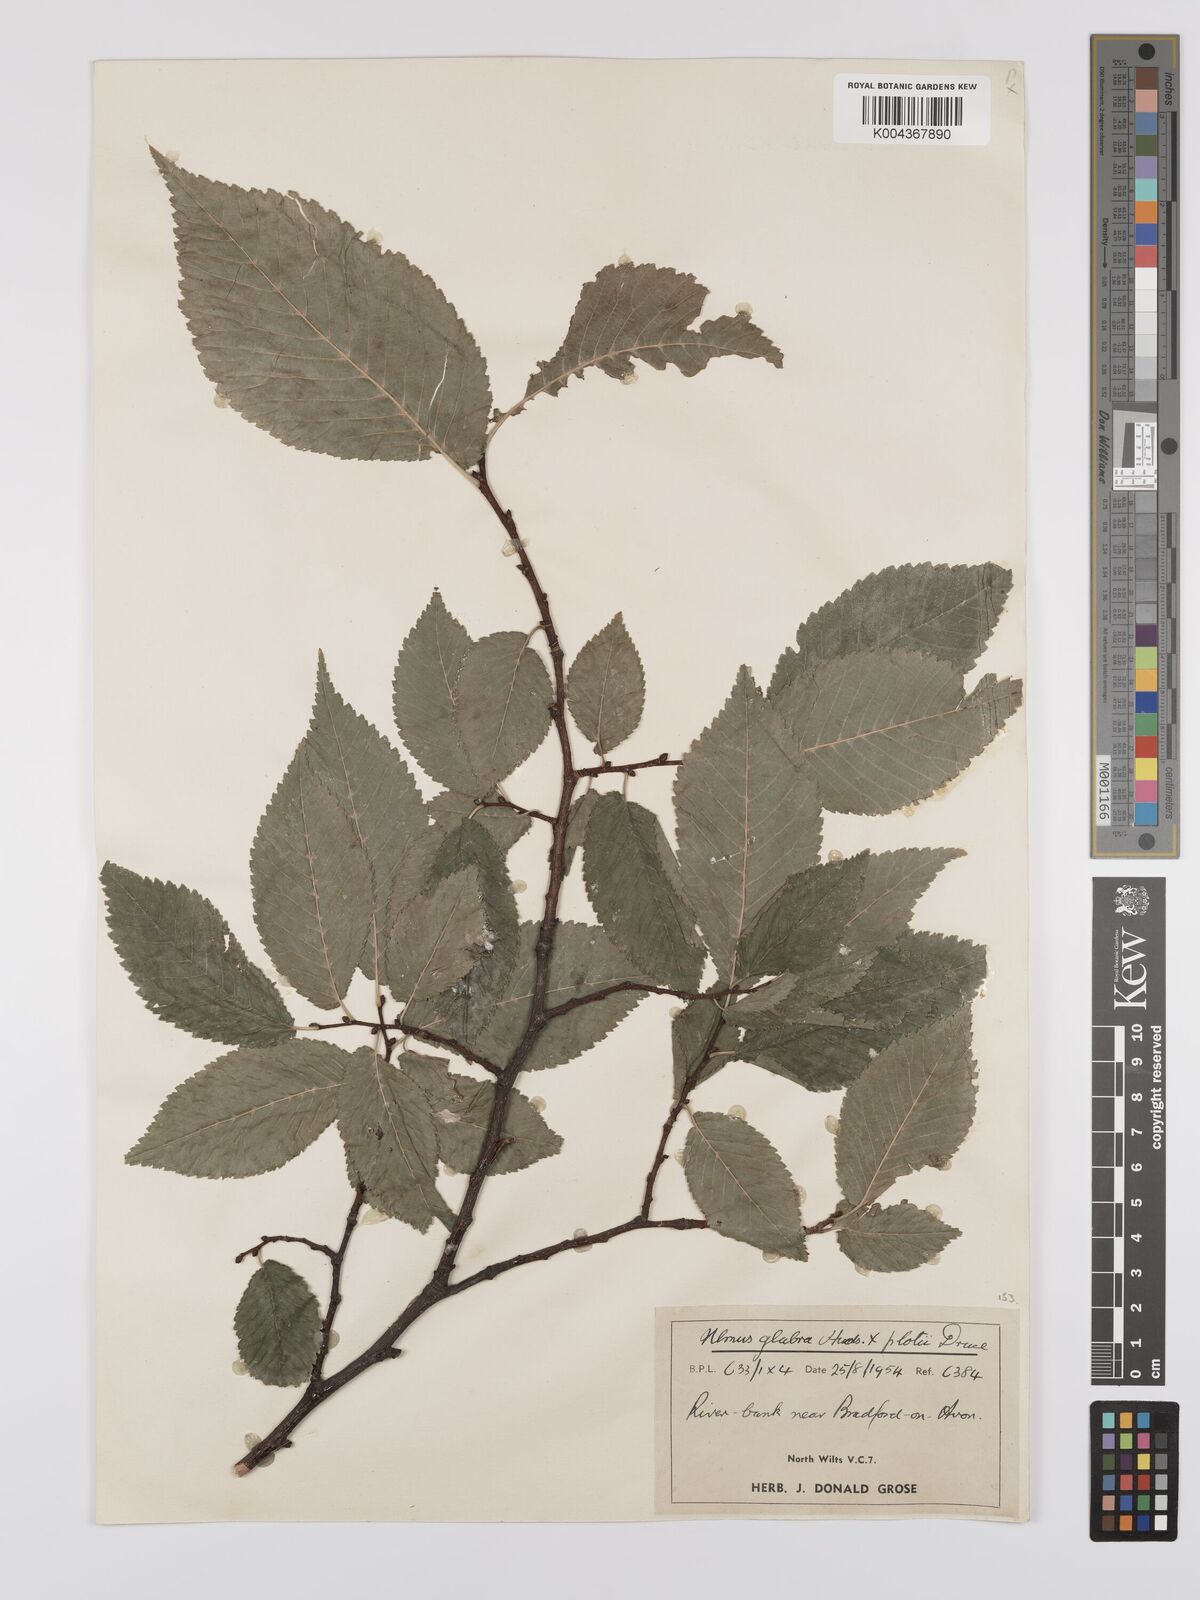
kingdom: Plantae
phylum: Tracheophyta
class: Magnoliopsida
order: Rosales
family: Ulmaceae
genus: Ulmus
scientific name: Ulmus glabra
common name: Wych elm
